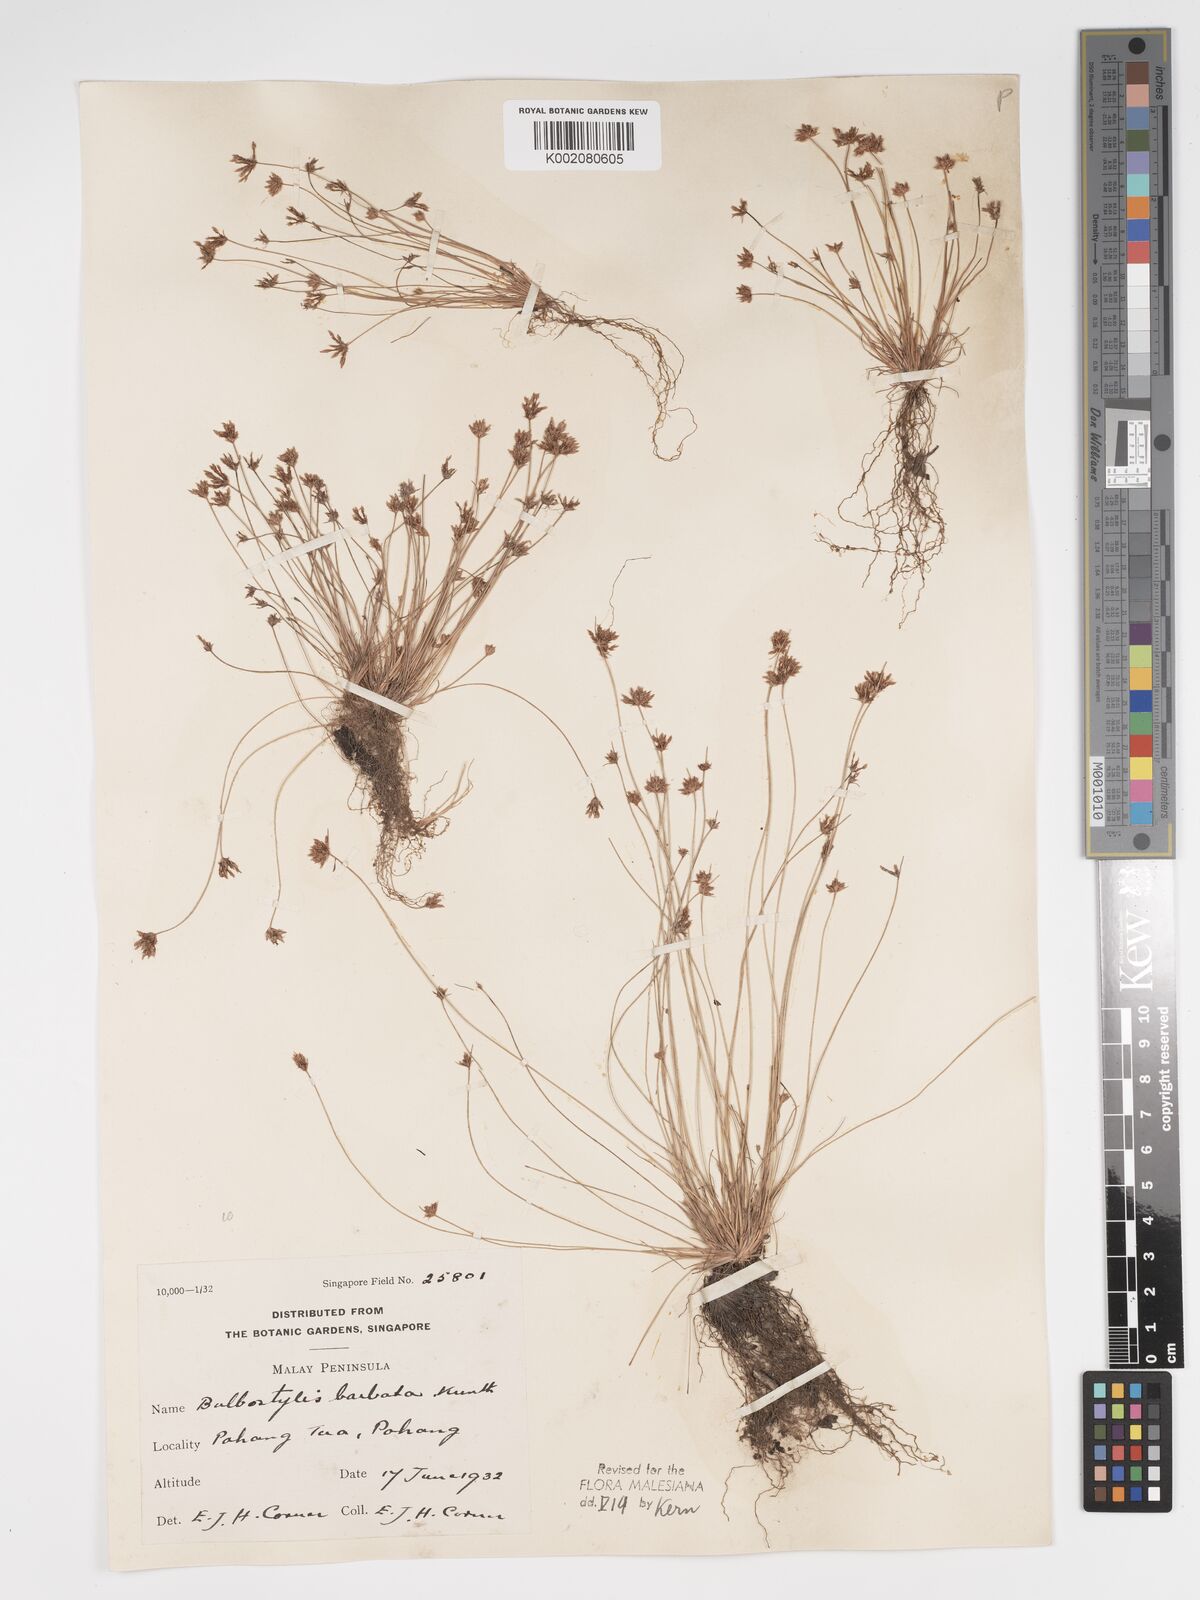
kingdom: Plantae
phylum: Tracheophyta
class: Liliopsida
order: Poales
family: Cyperaceae
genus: Bulbostylis
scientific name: Bulbostylis barbata
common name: Watergrass
